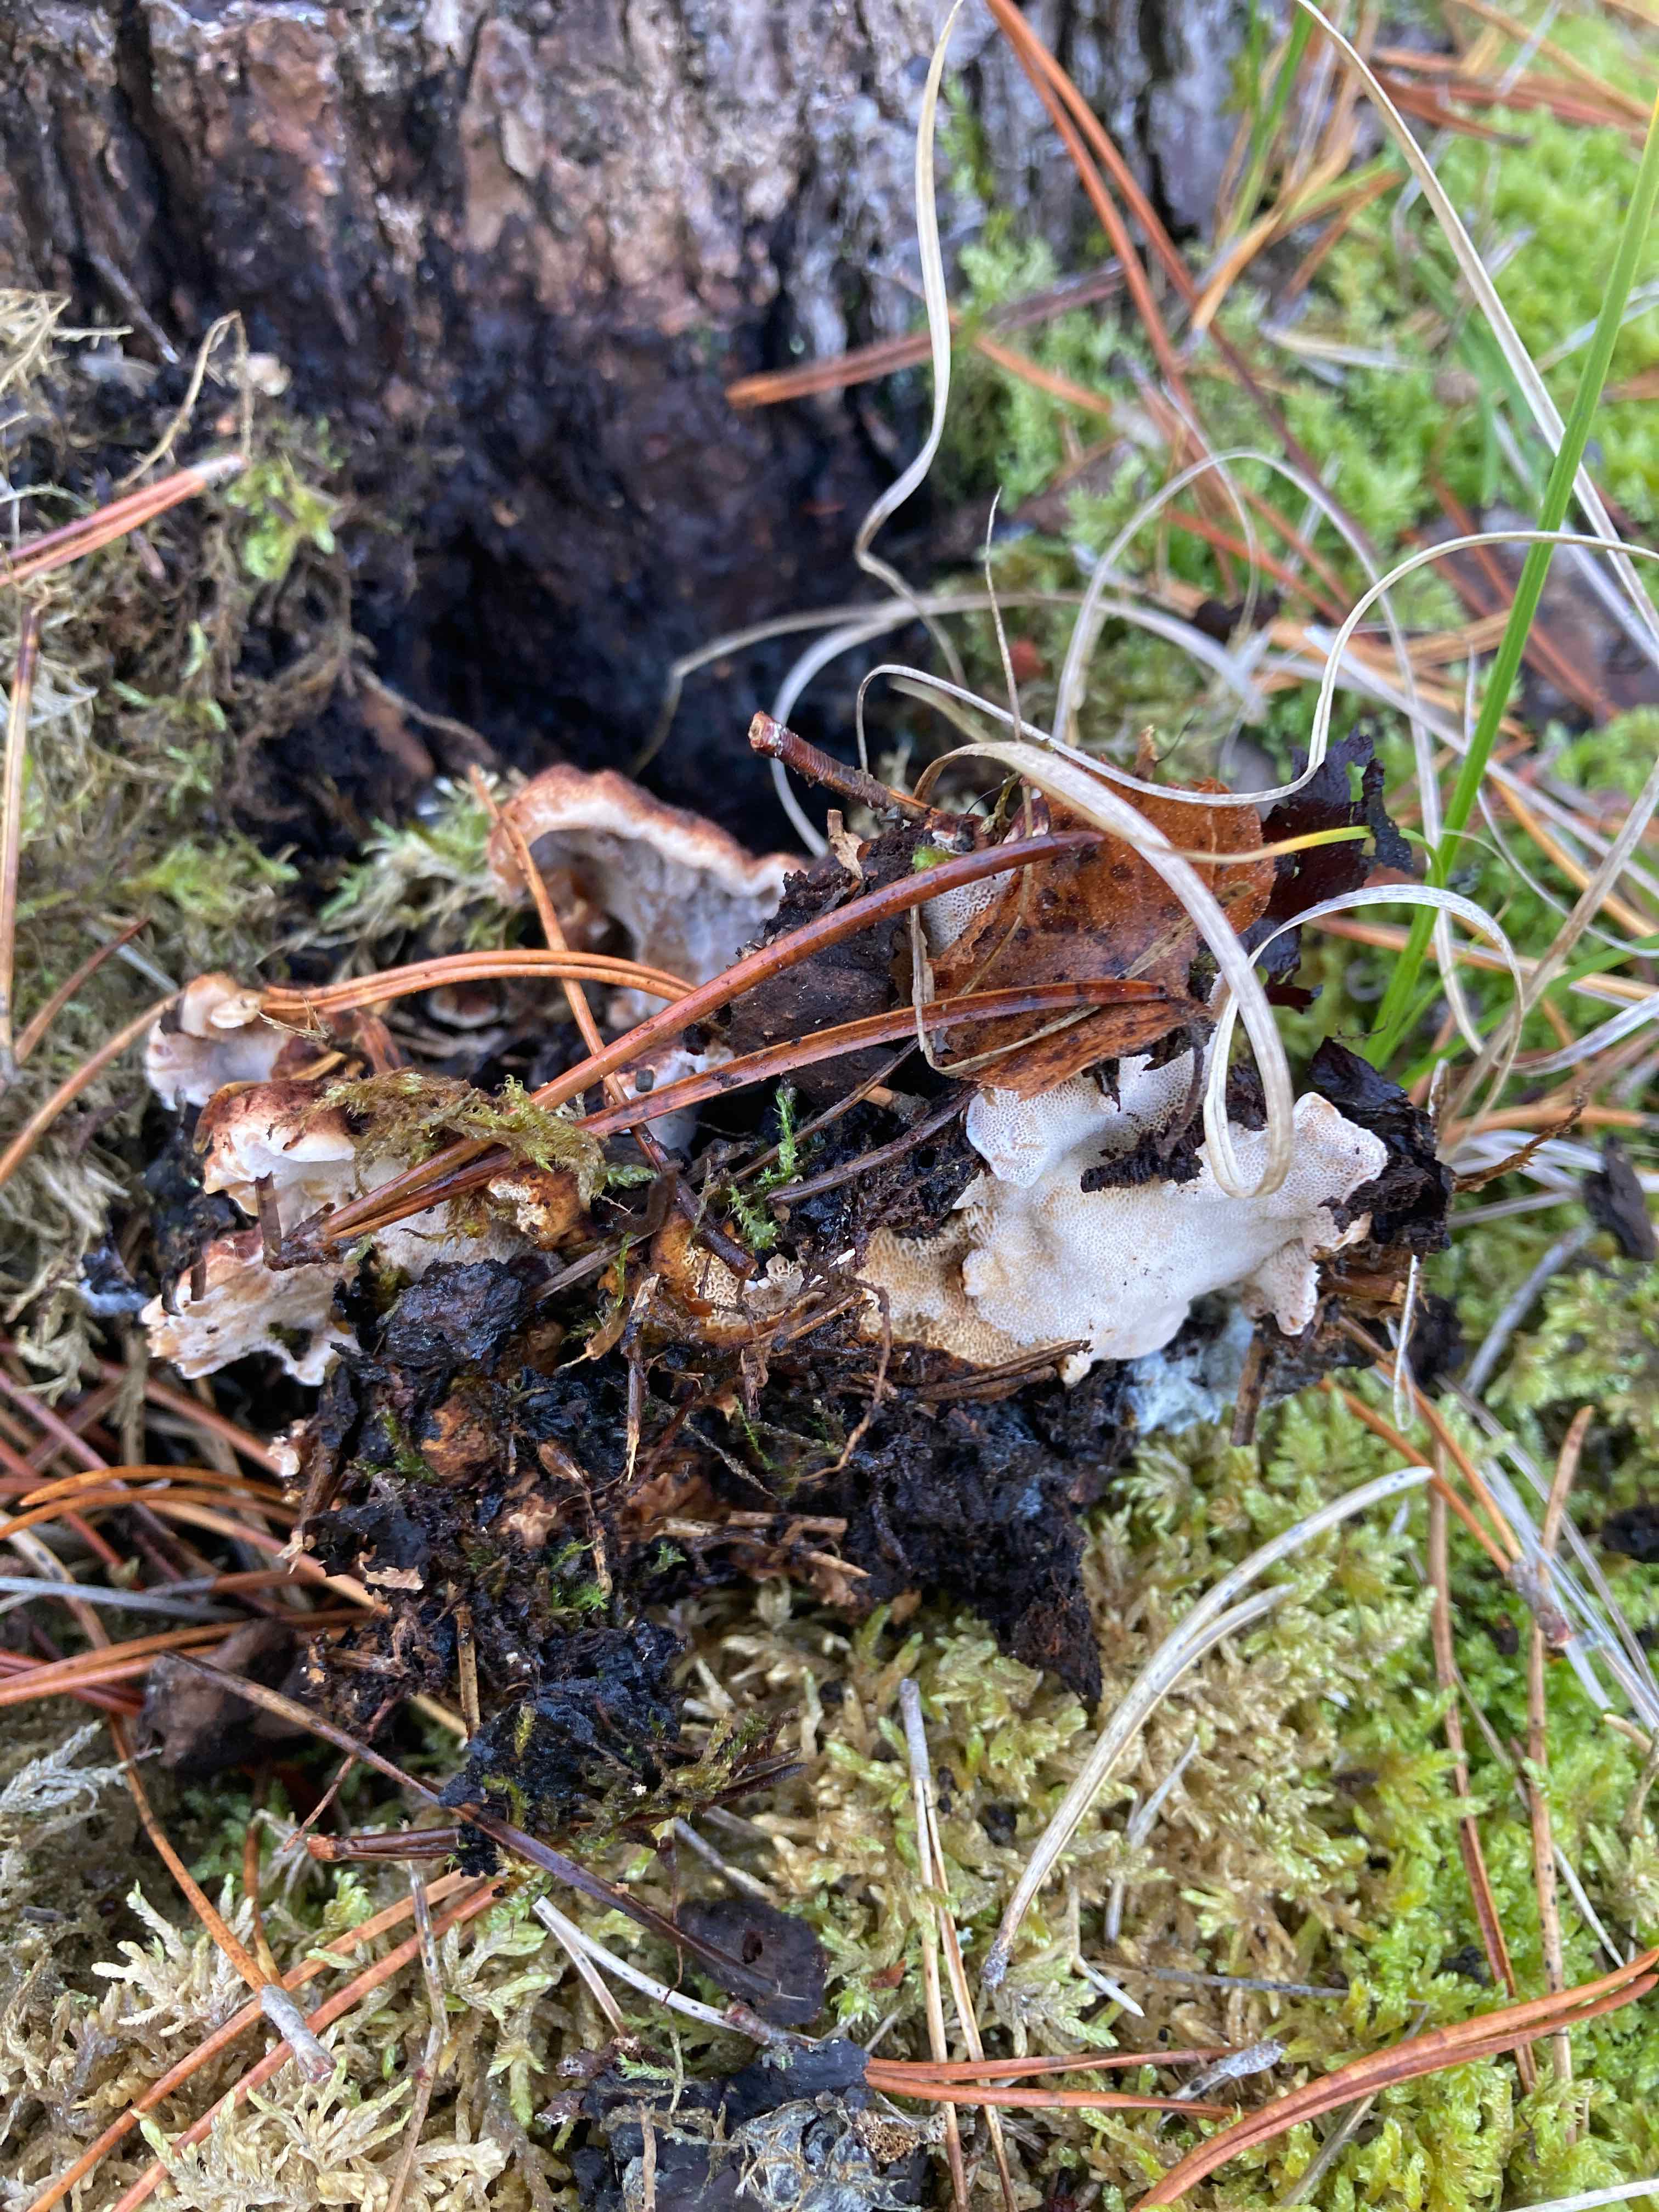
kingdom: Fungi
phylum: Basidiomycota
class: Agaricomycetes
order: Polyporales
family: Ischnodermataceae
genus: Ischnoderma
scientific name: Ischnoderma benzoinum
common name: gran-tjæreporesvamp
